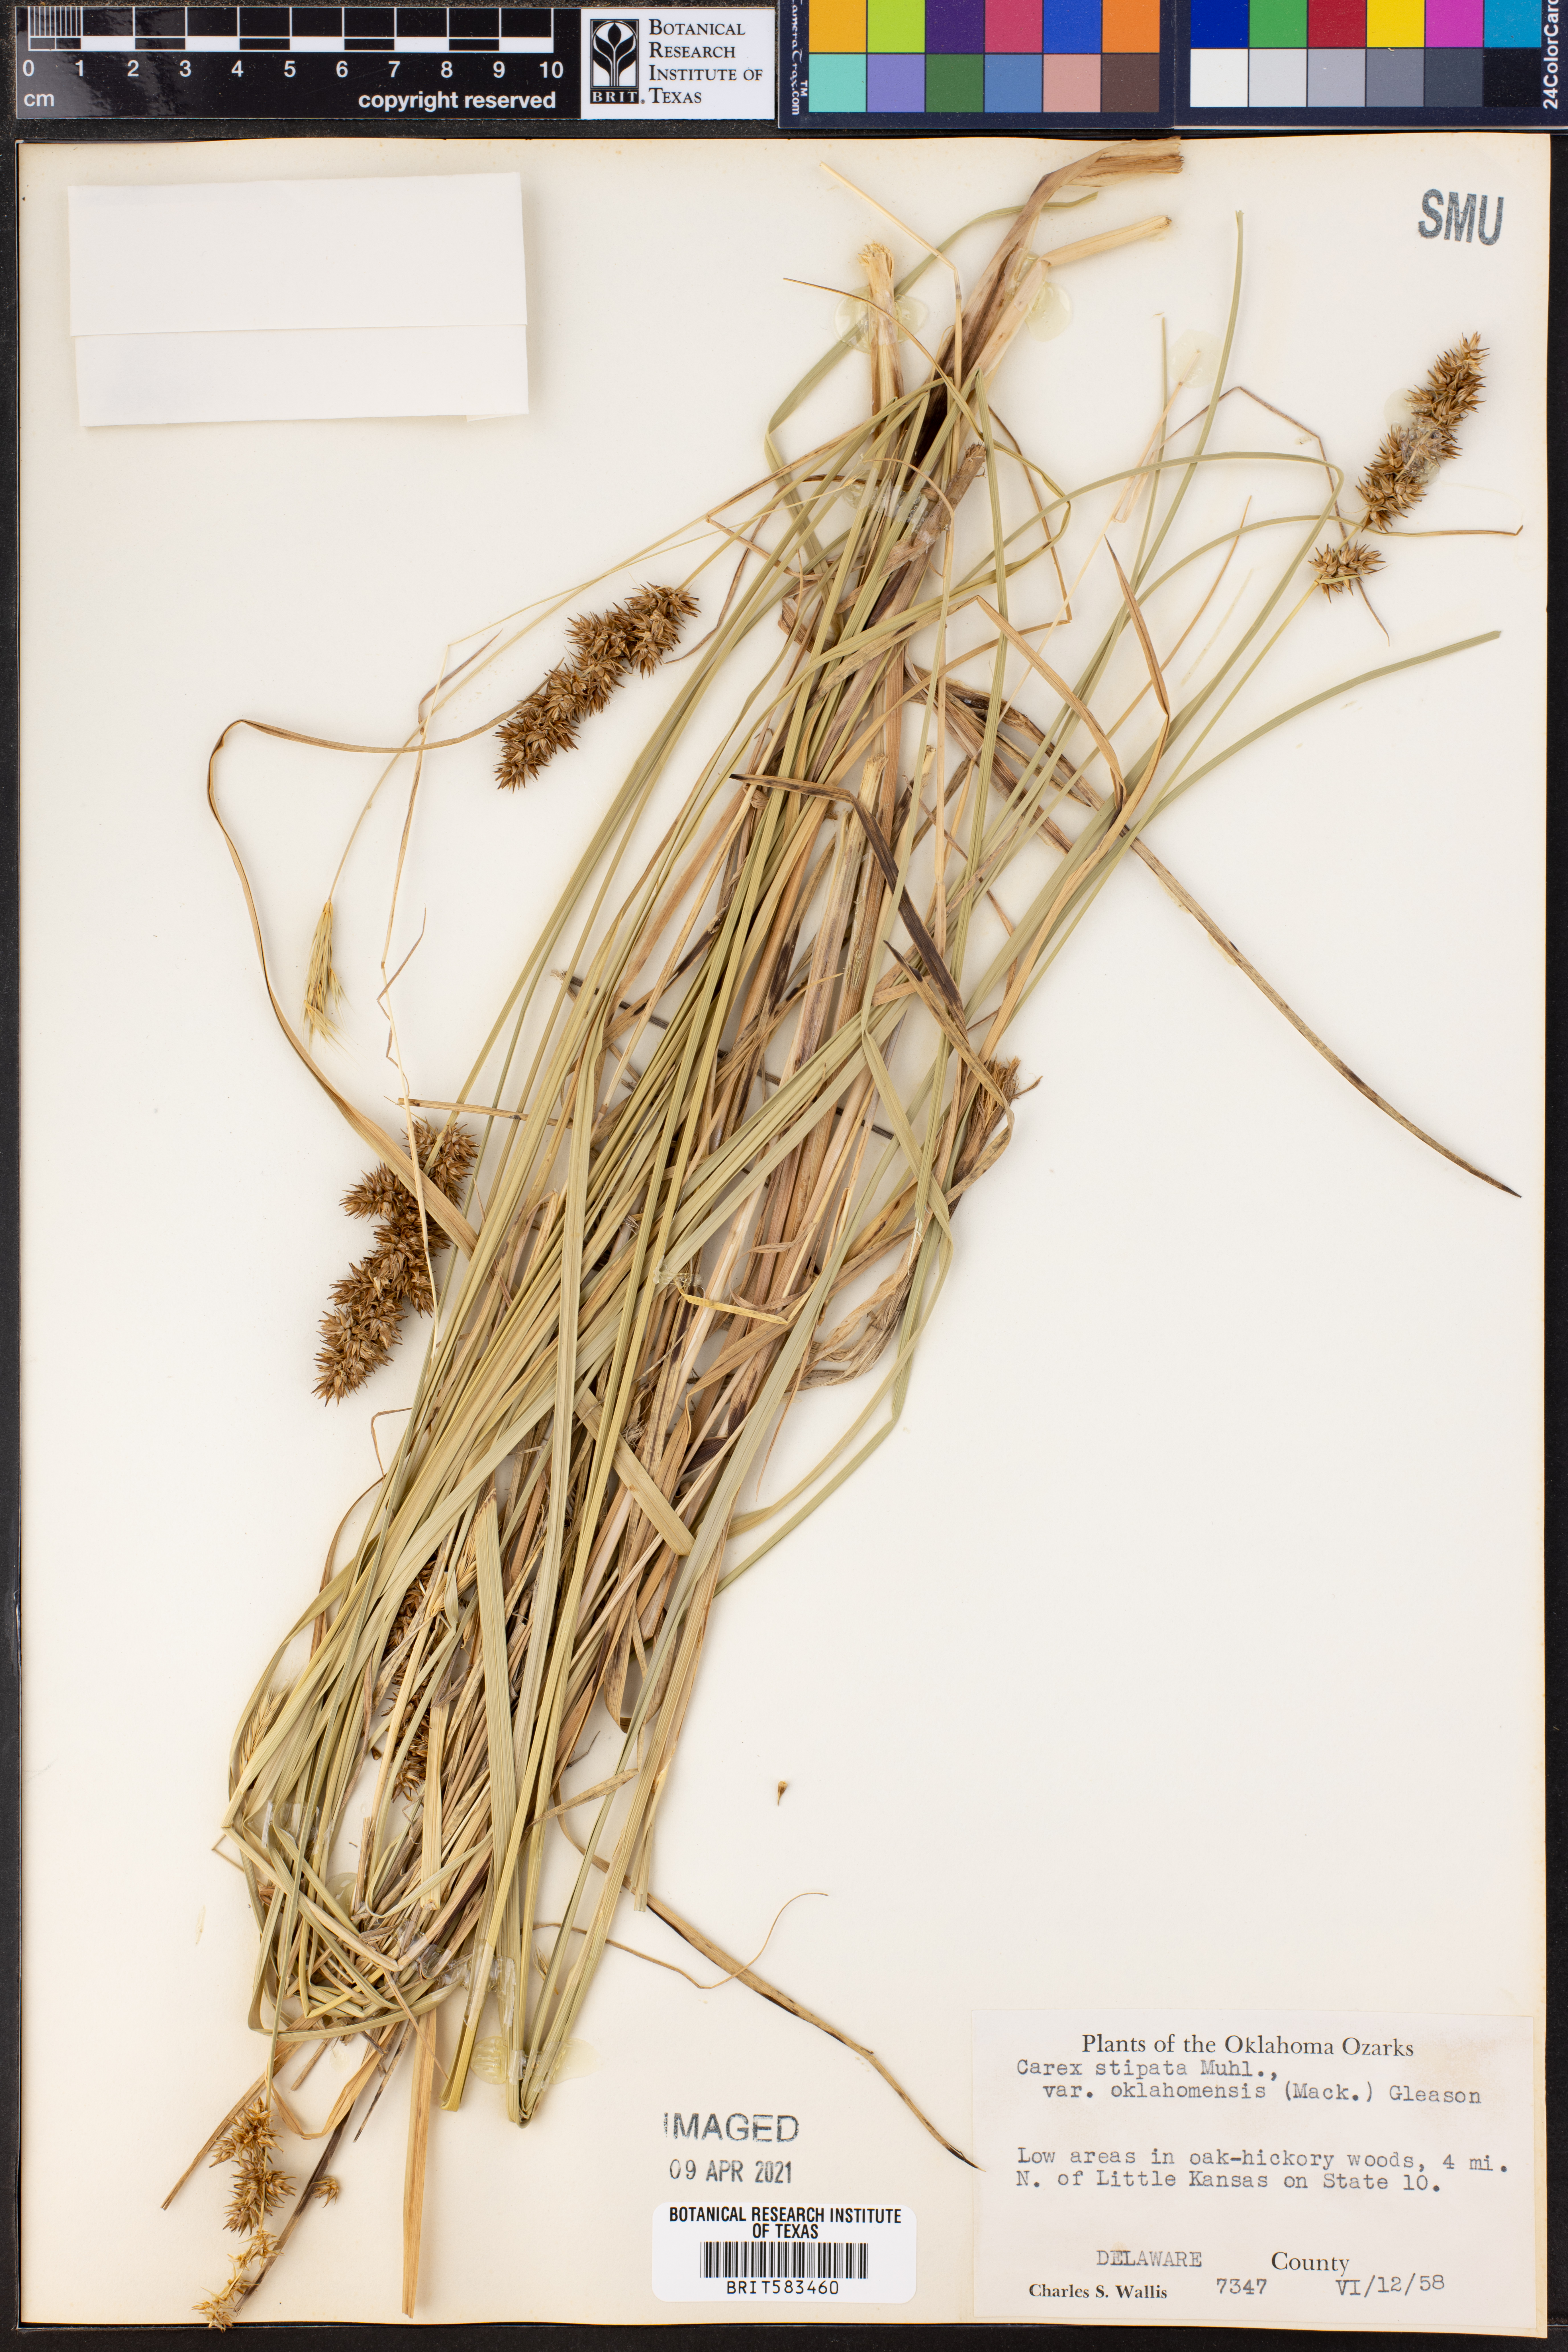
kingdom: Plantae
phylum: Tracheophyta
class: Liliopsida
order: Poales
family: Cyperaceae
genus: Carex
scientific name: Carex oklahomensis
